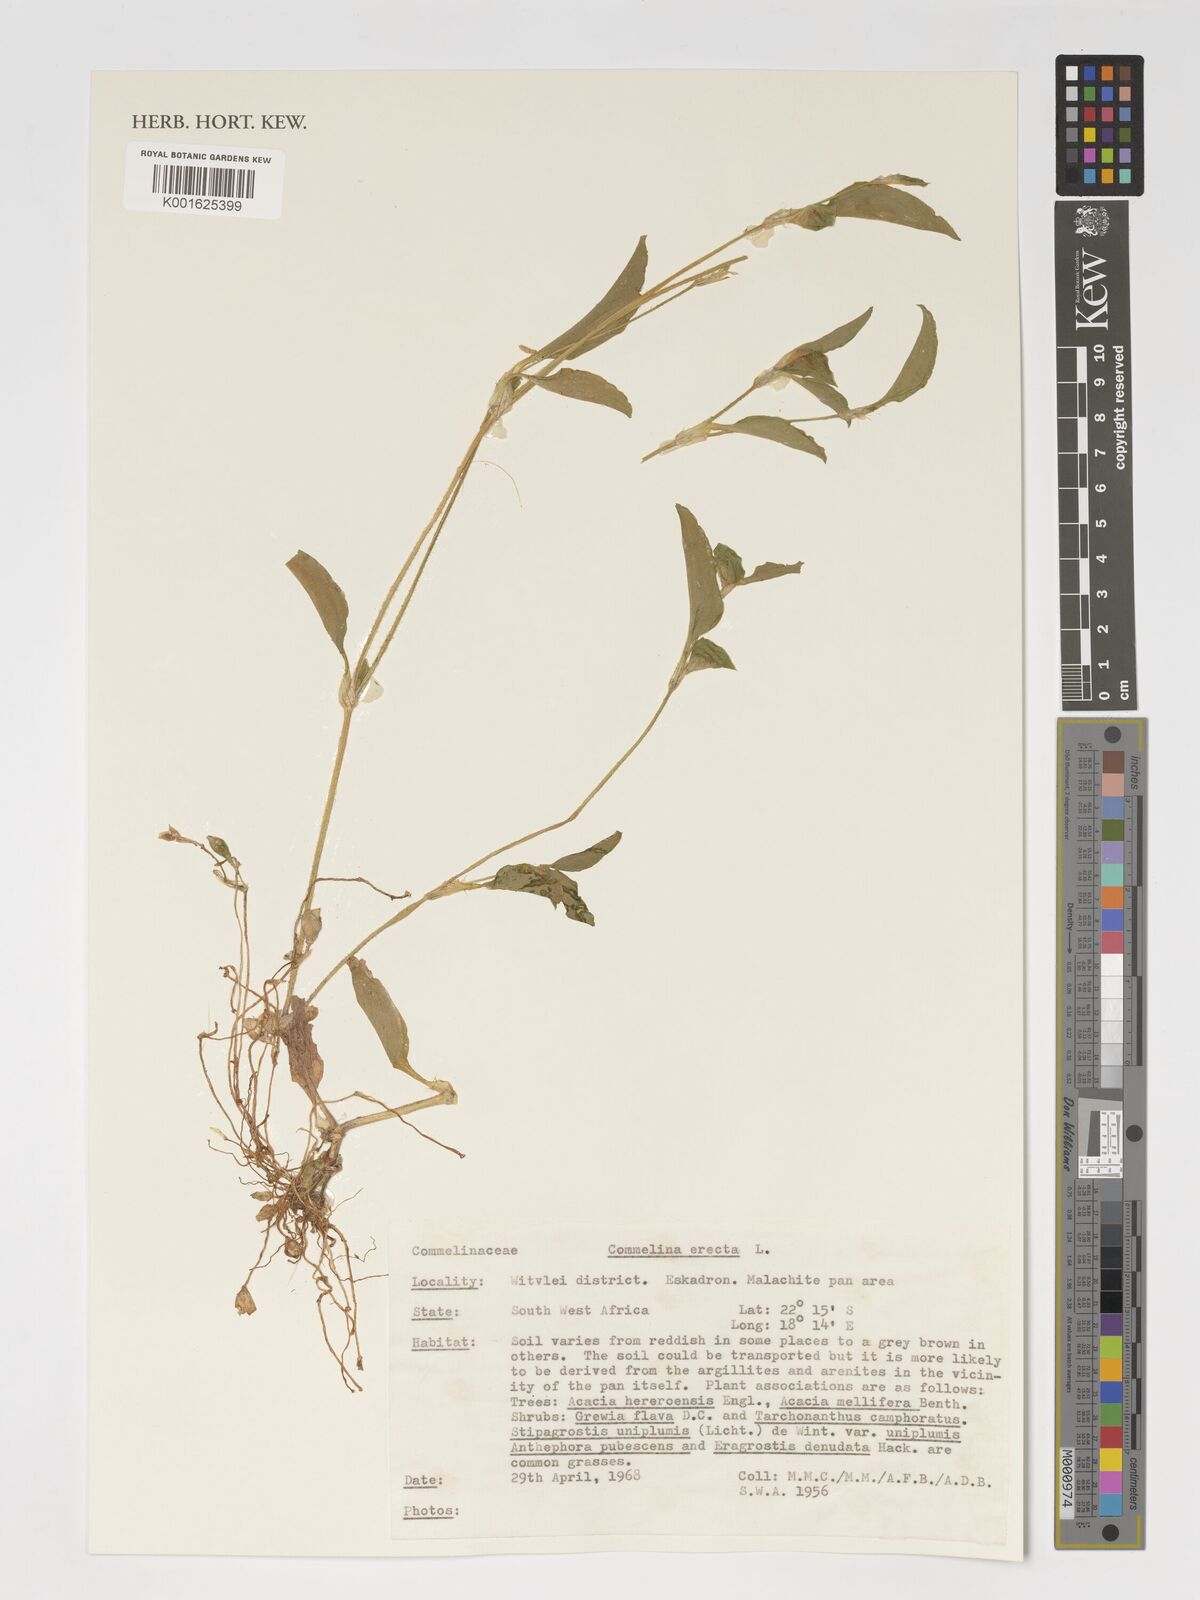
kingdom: Plantae
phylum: Tracheophyta
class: Liliopsida
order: Commelinales
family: Commelinaceae
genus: Commelina
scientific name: Commelina erecta
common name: Blousel blommetjie
